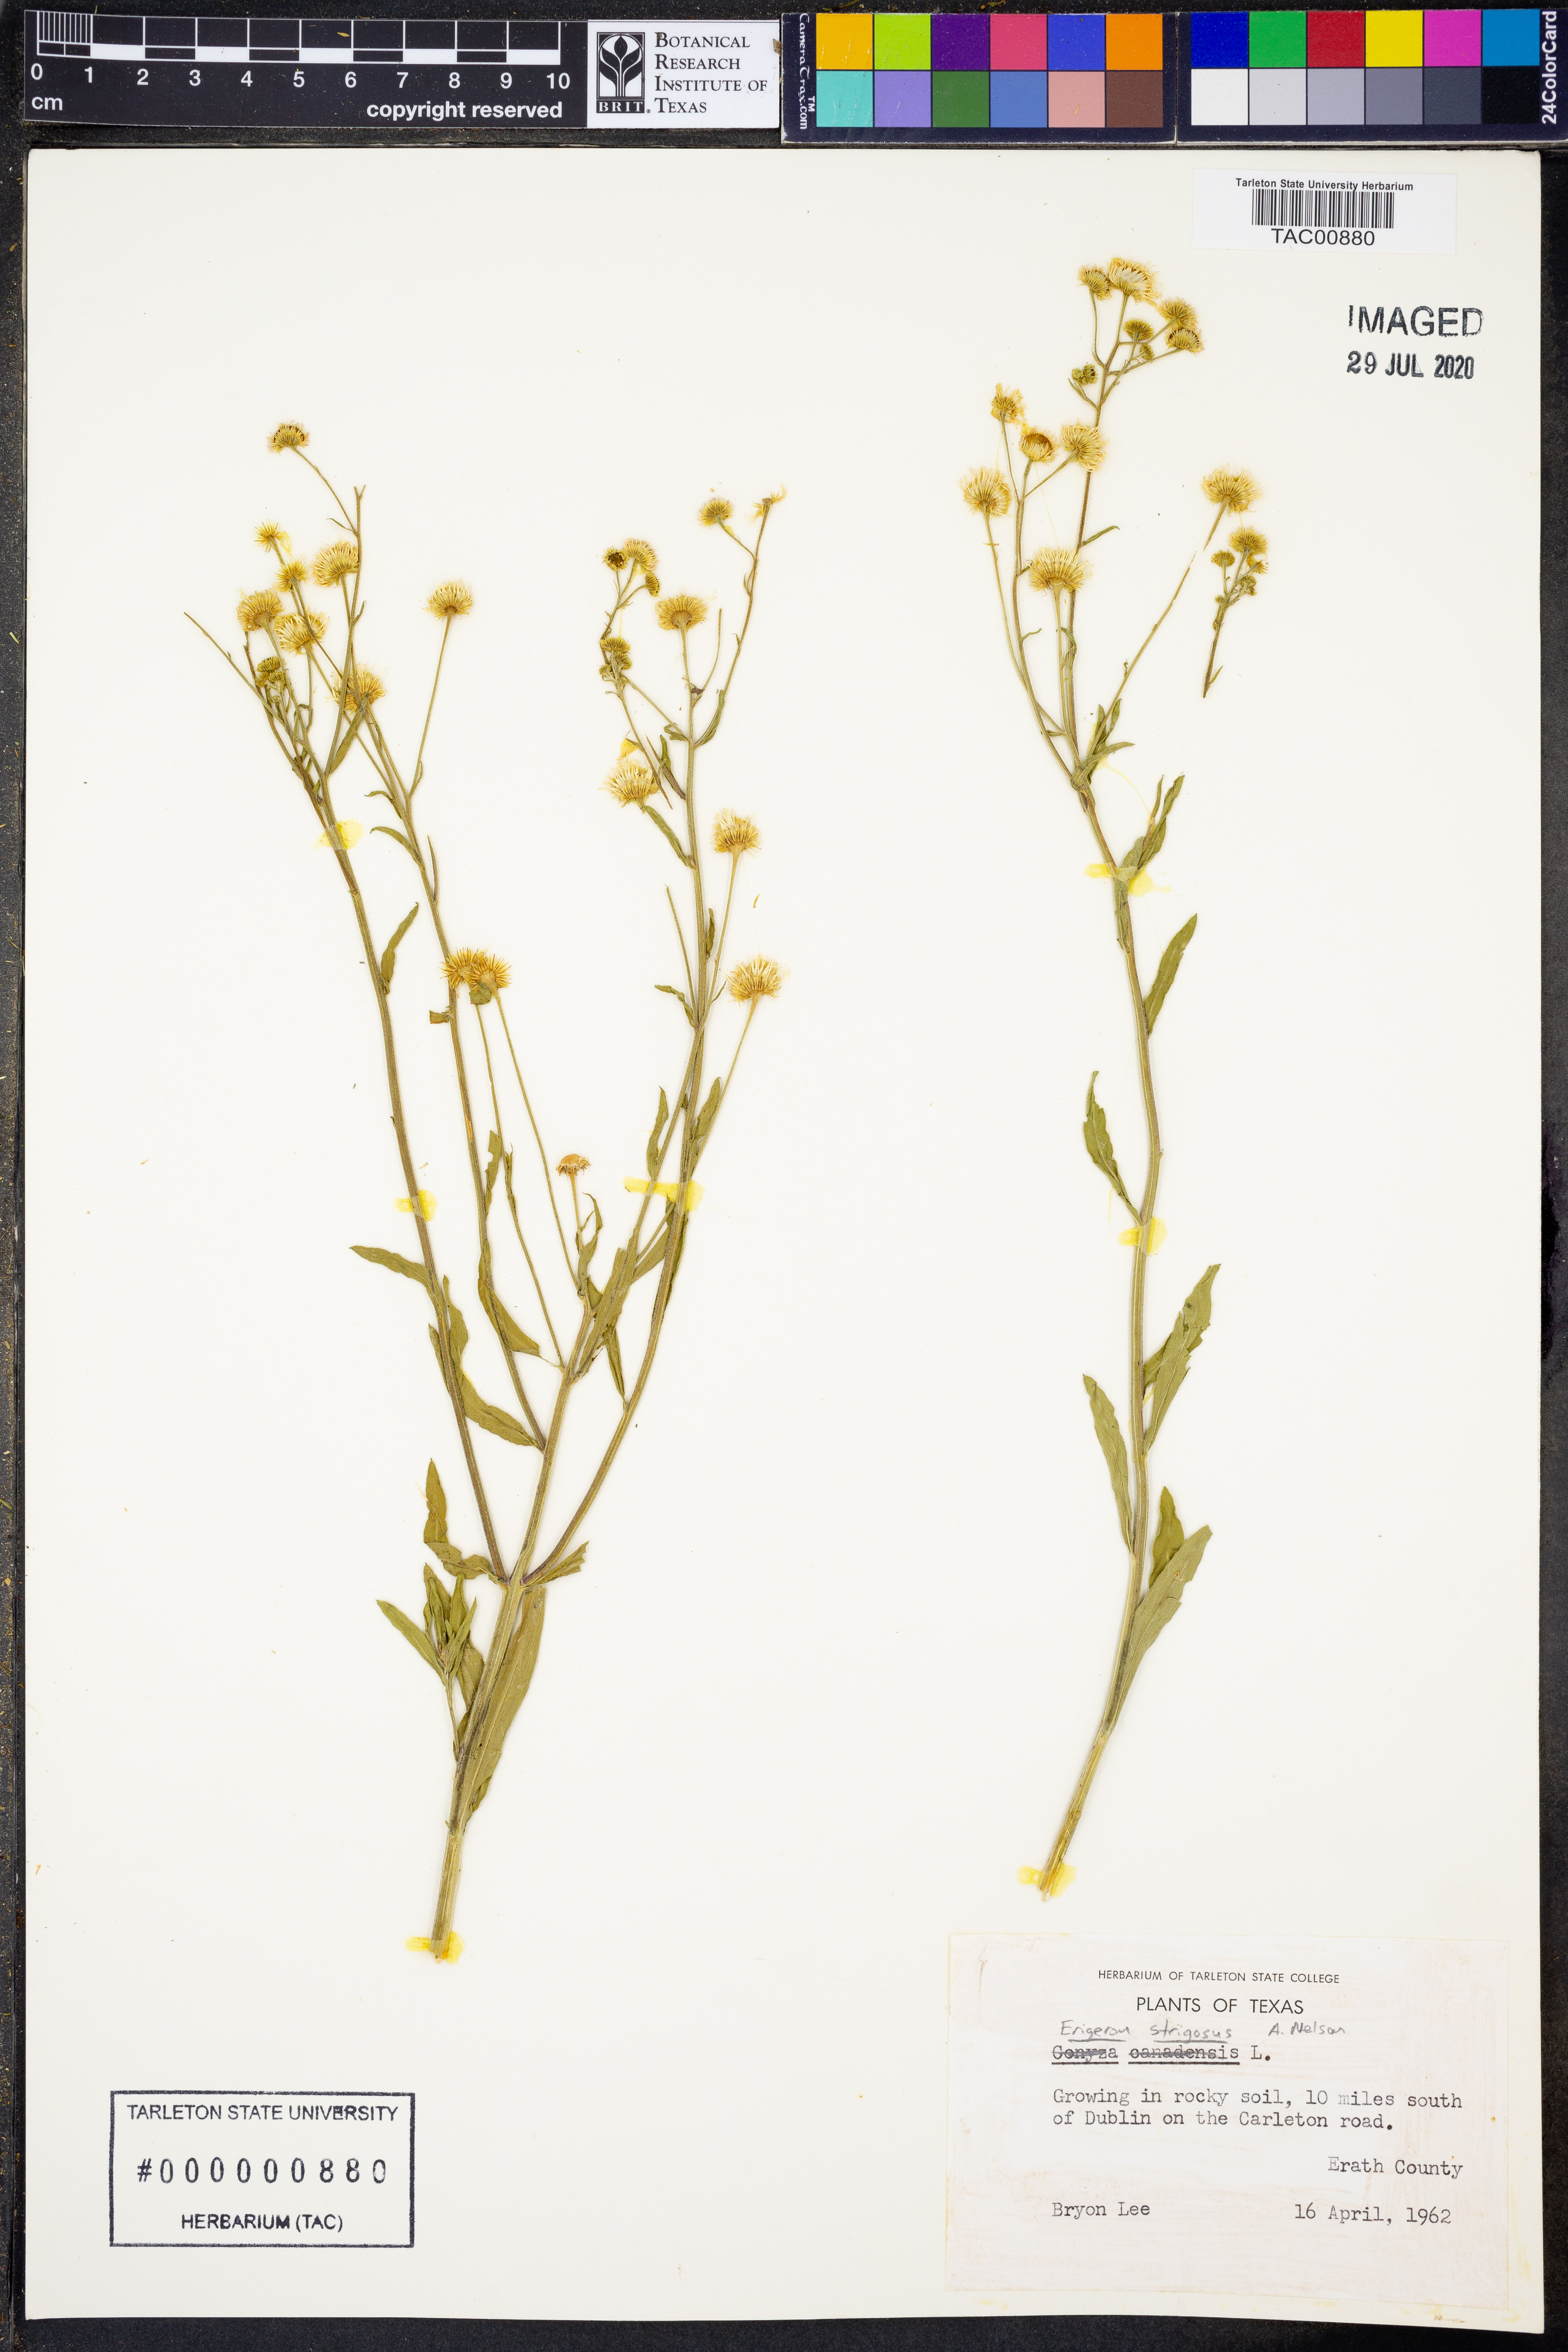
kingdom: Plantae
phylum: Tracheophyta
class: Magnoliopsida
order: Asterales
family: Asteraceae
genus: Erigeron
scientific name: Erigeron strigosus
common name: Common eastern fleabane
